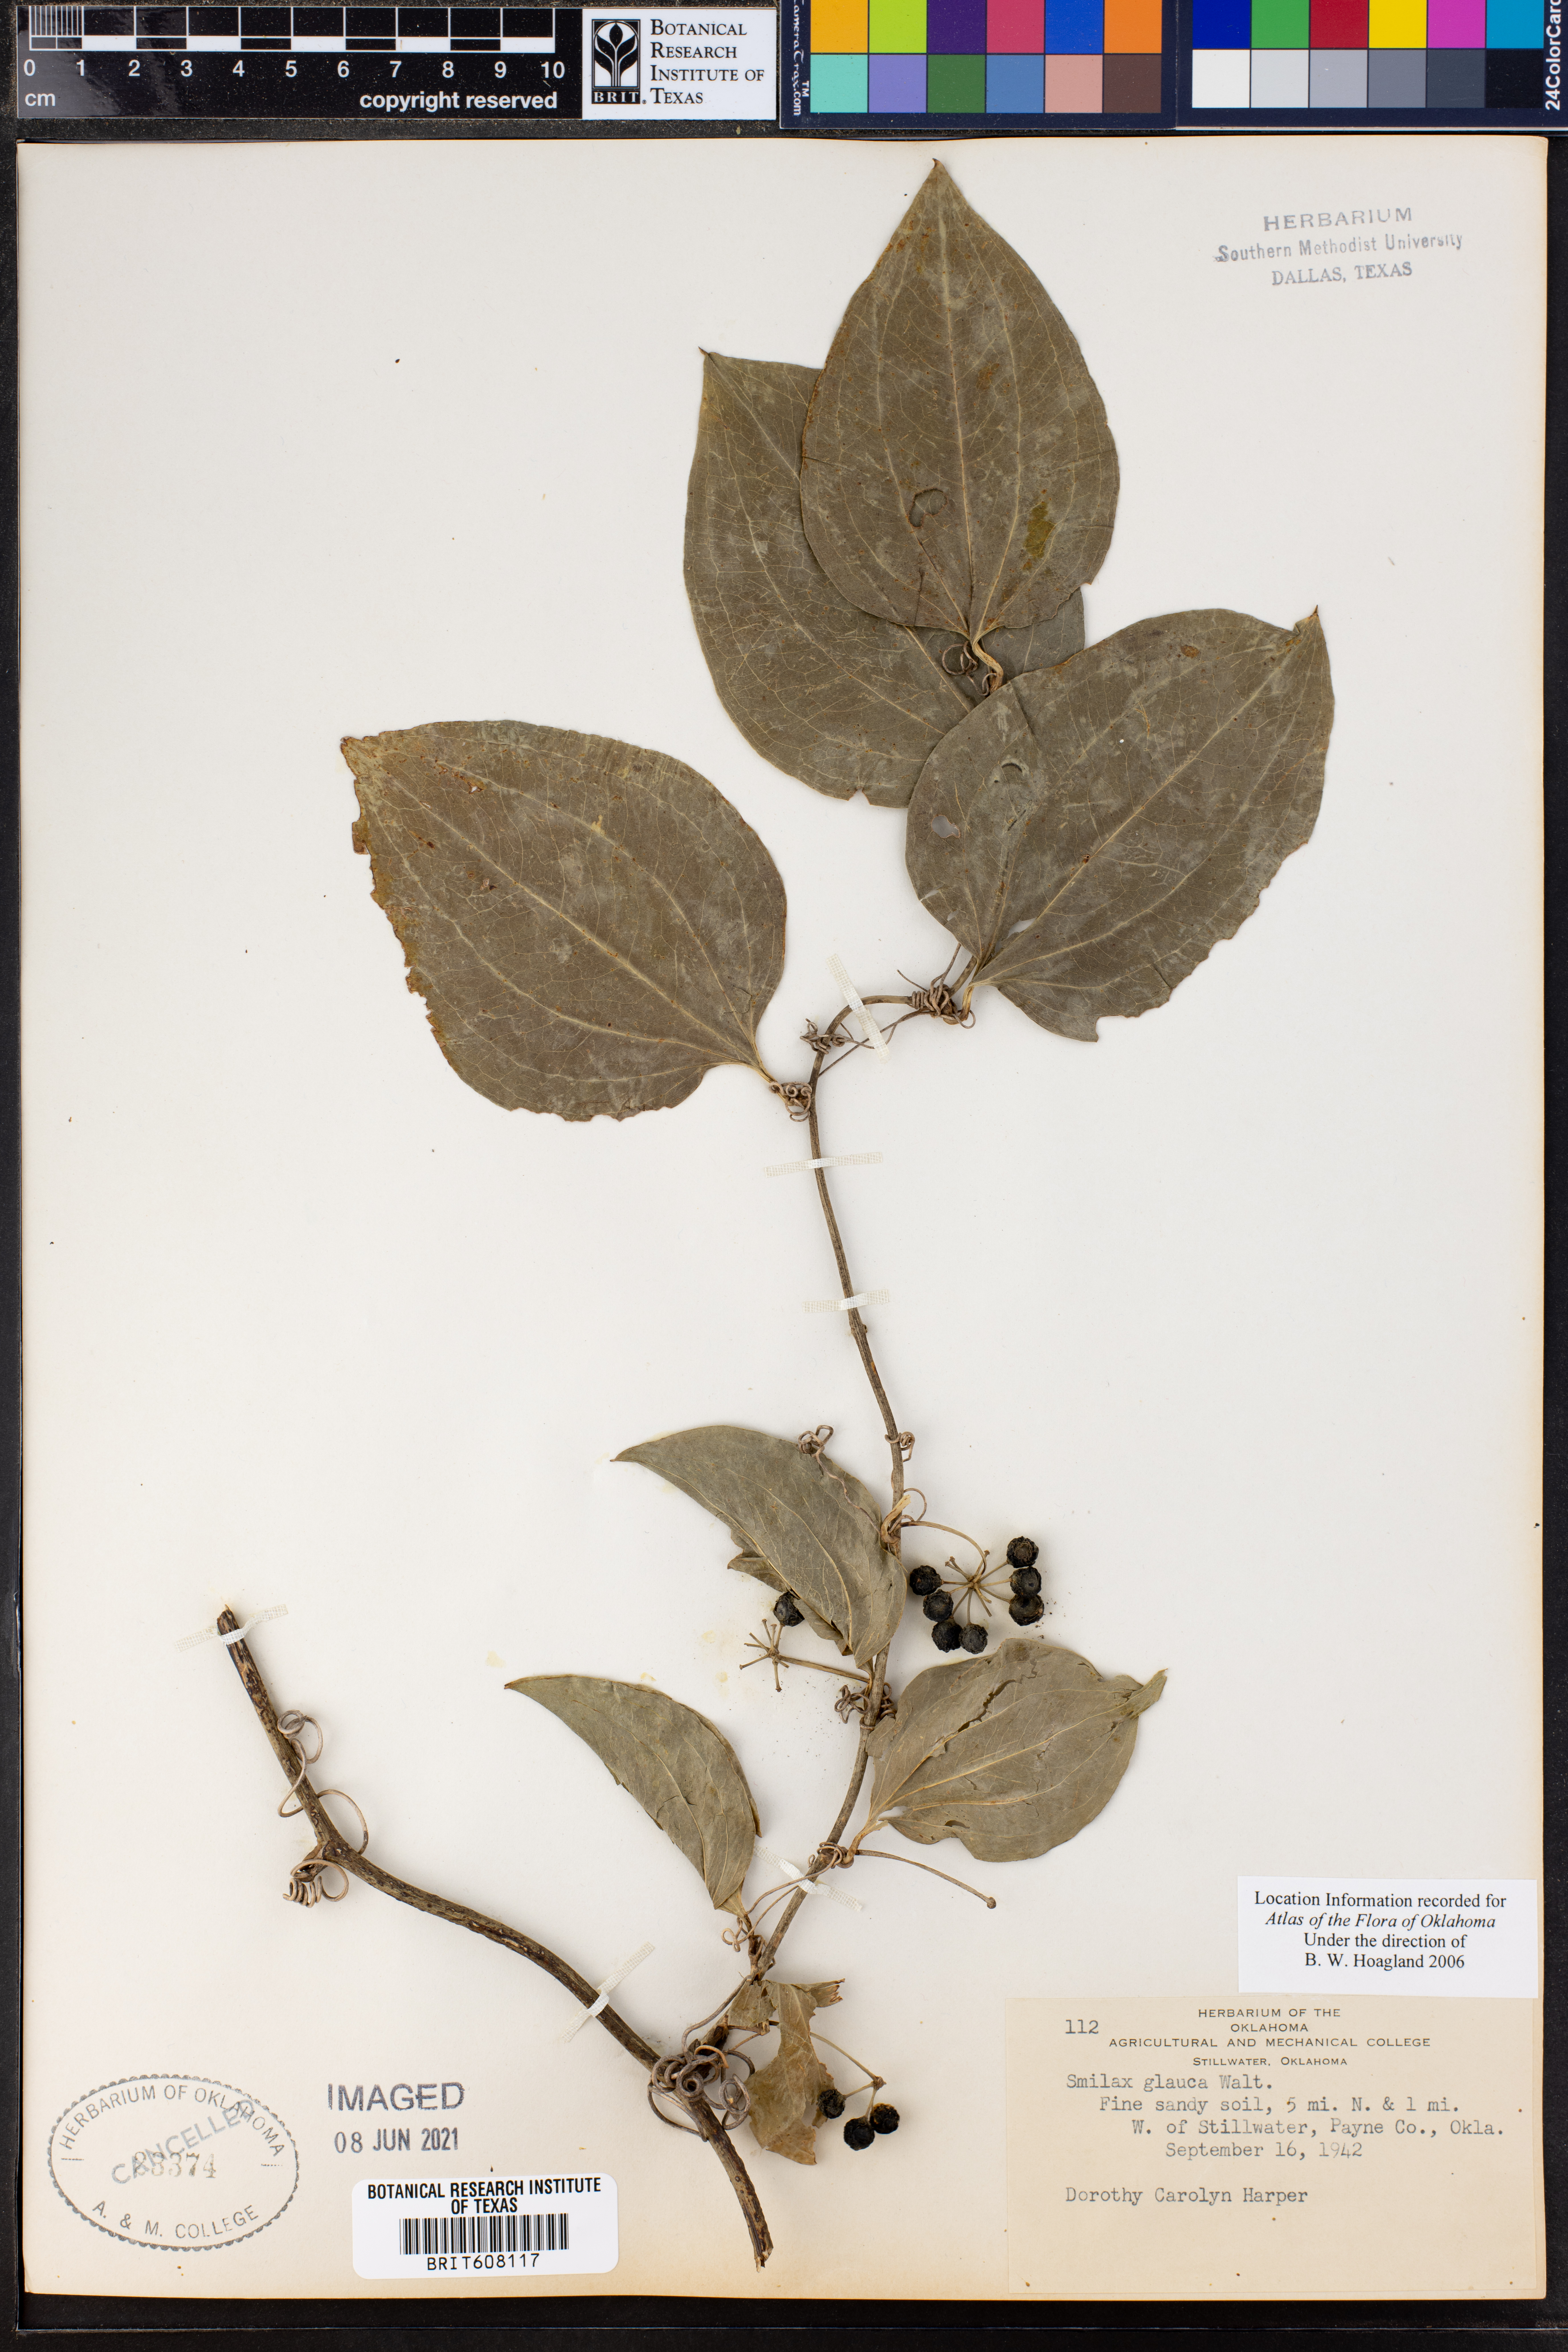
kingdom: Plantae
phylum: Tracheophyta
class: Liliopsida
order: Liliales
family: Smilacaceae
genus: Smilax
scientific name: Smilax glauca
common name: Cat greenbrier
